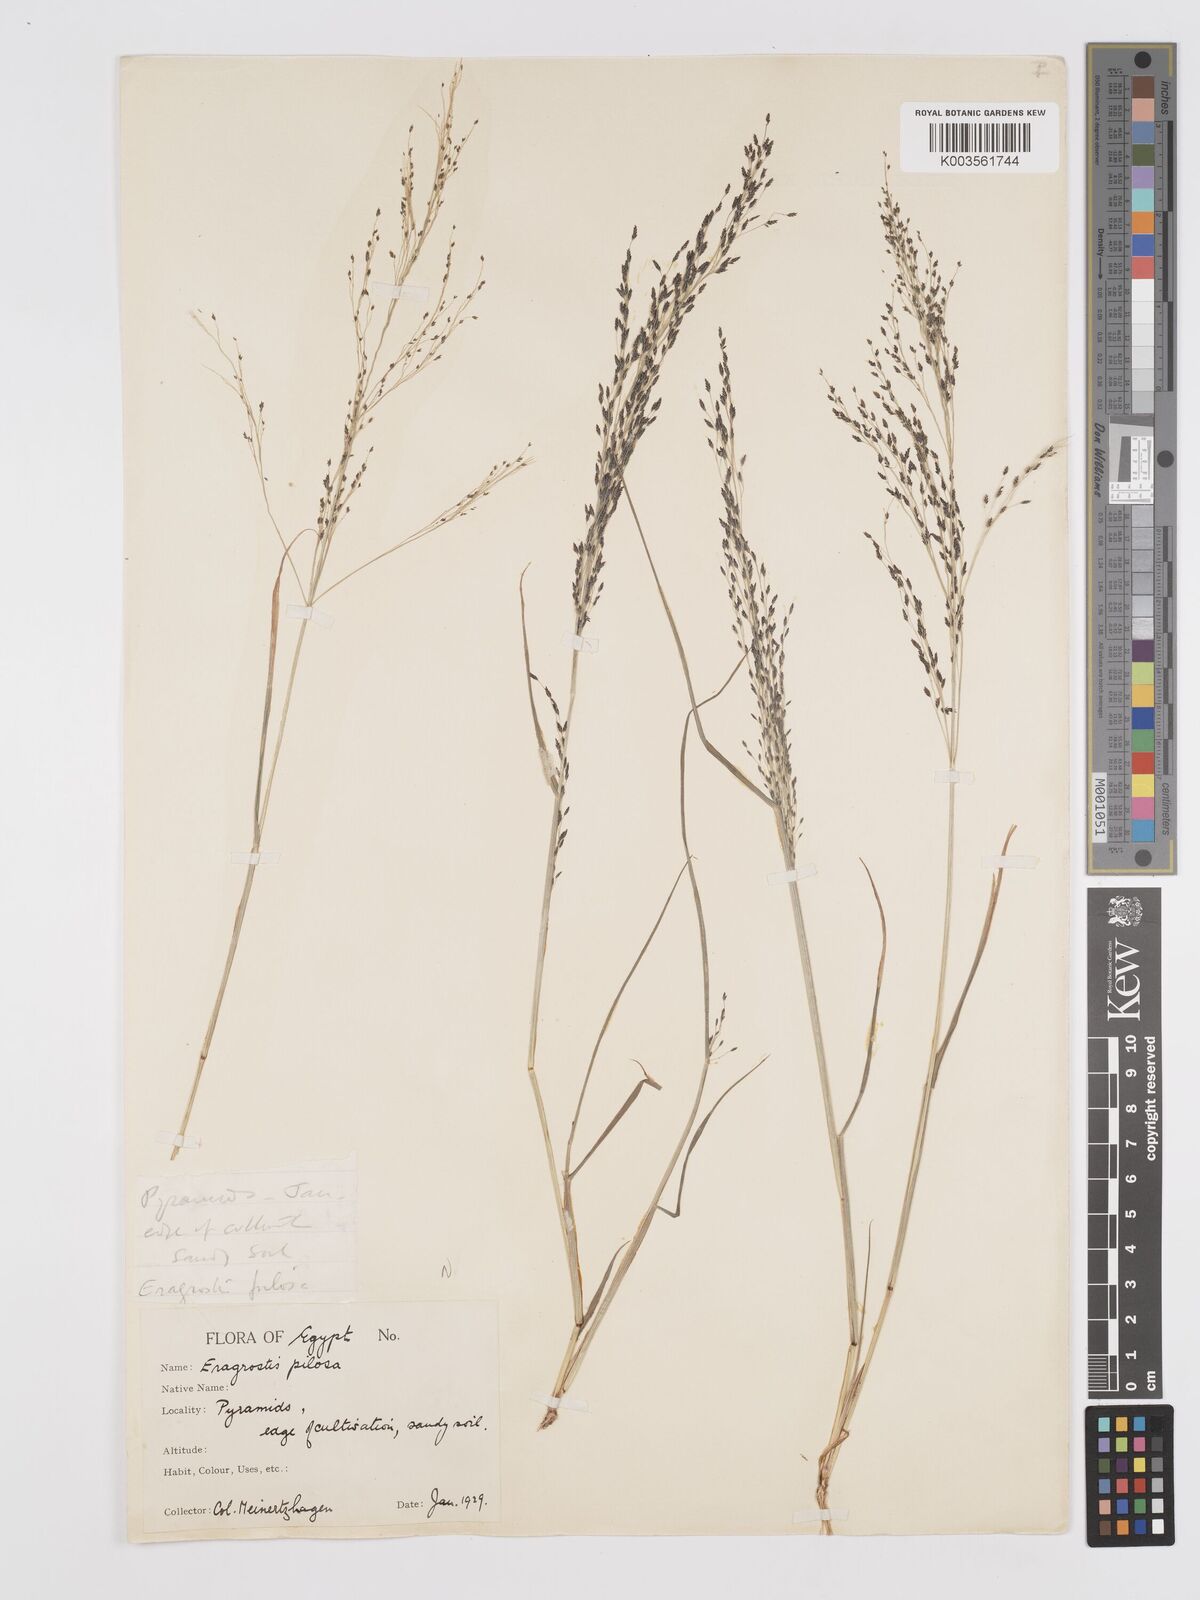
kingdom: Plantae
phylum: Tracheophyta
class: Liliopsida
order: Poales
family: Poaceae
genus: Eragrostis
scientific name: Eragrostis pilosa
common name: Indian lovegrass
